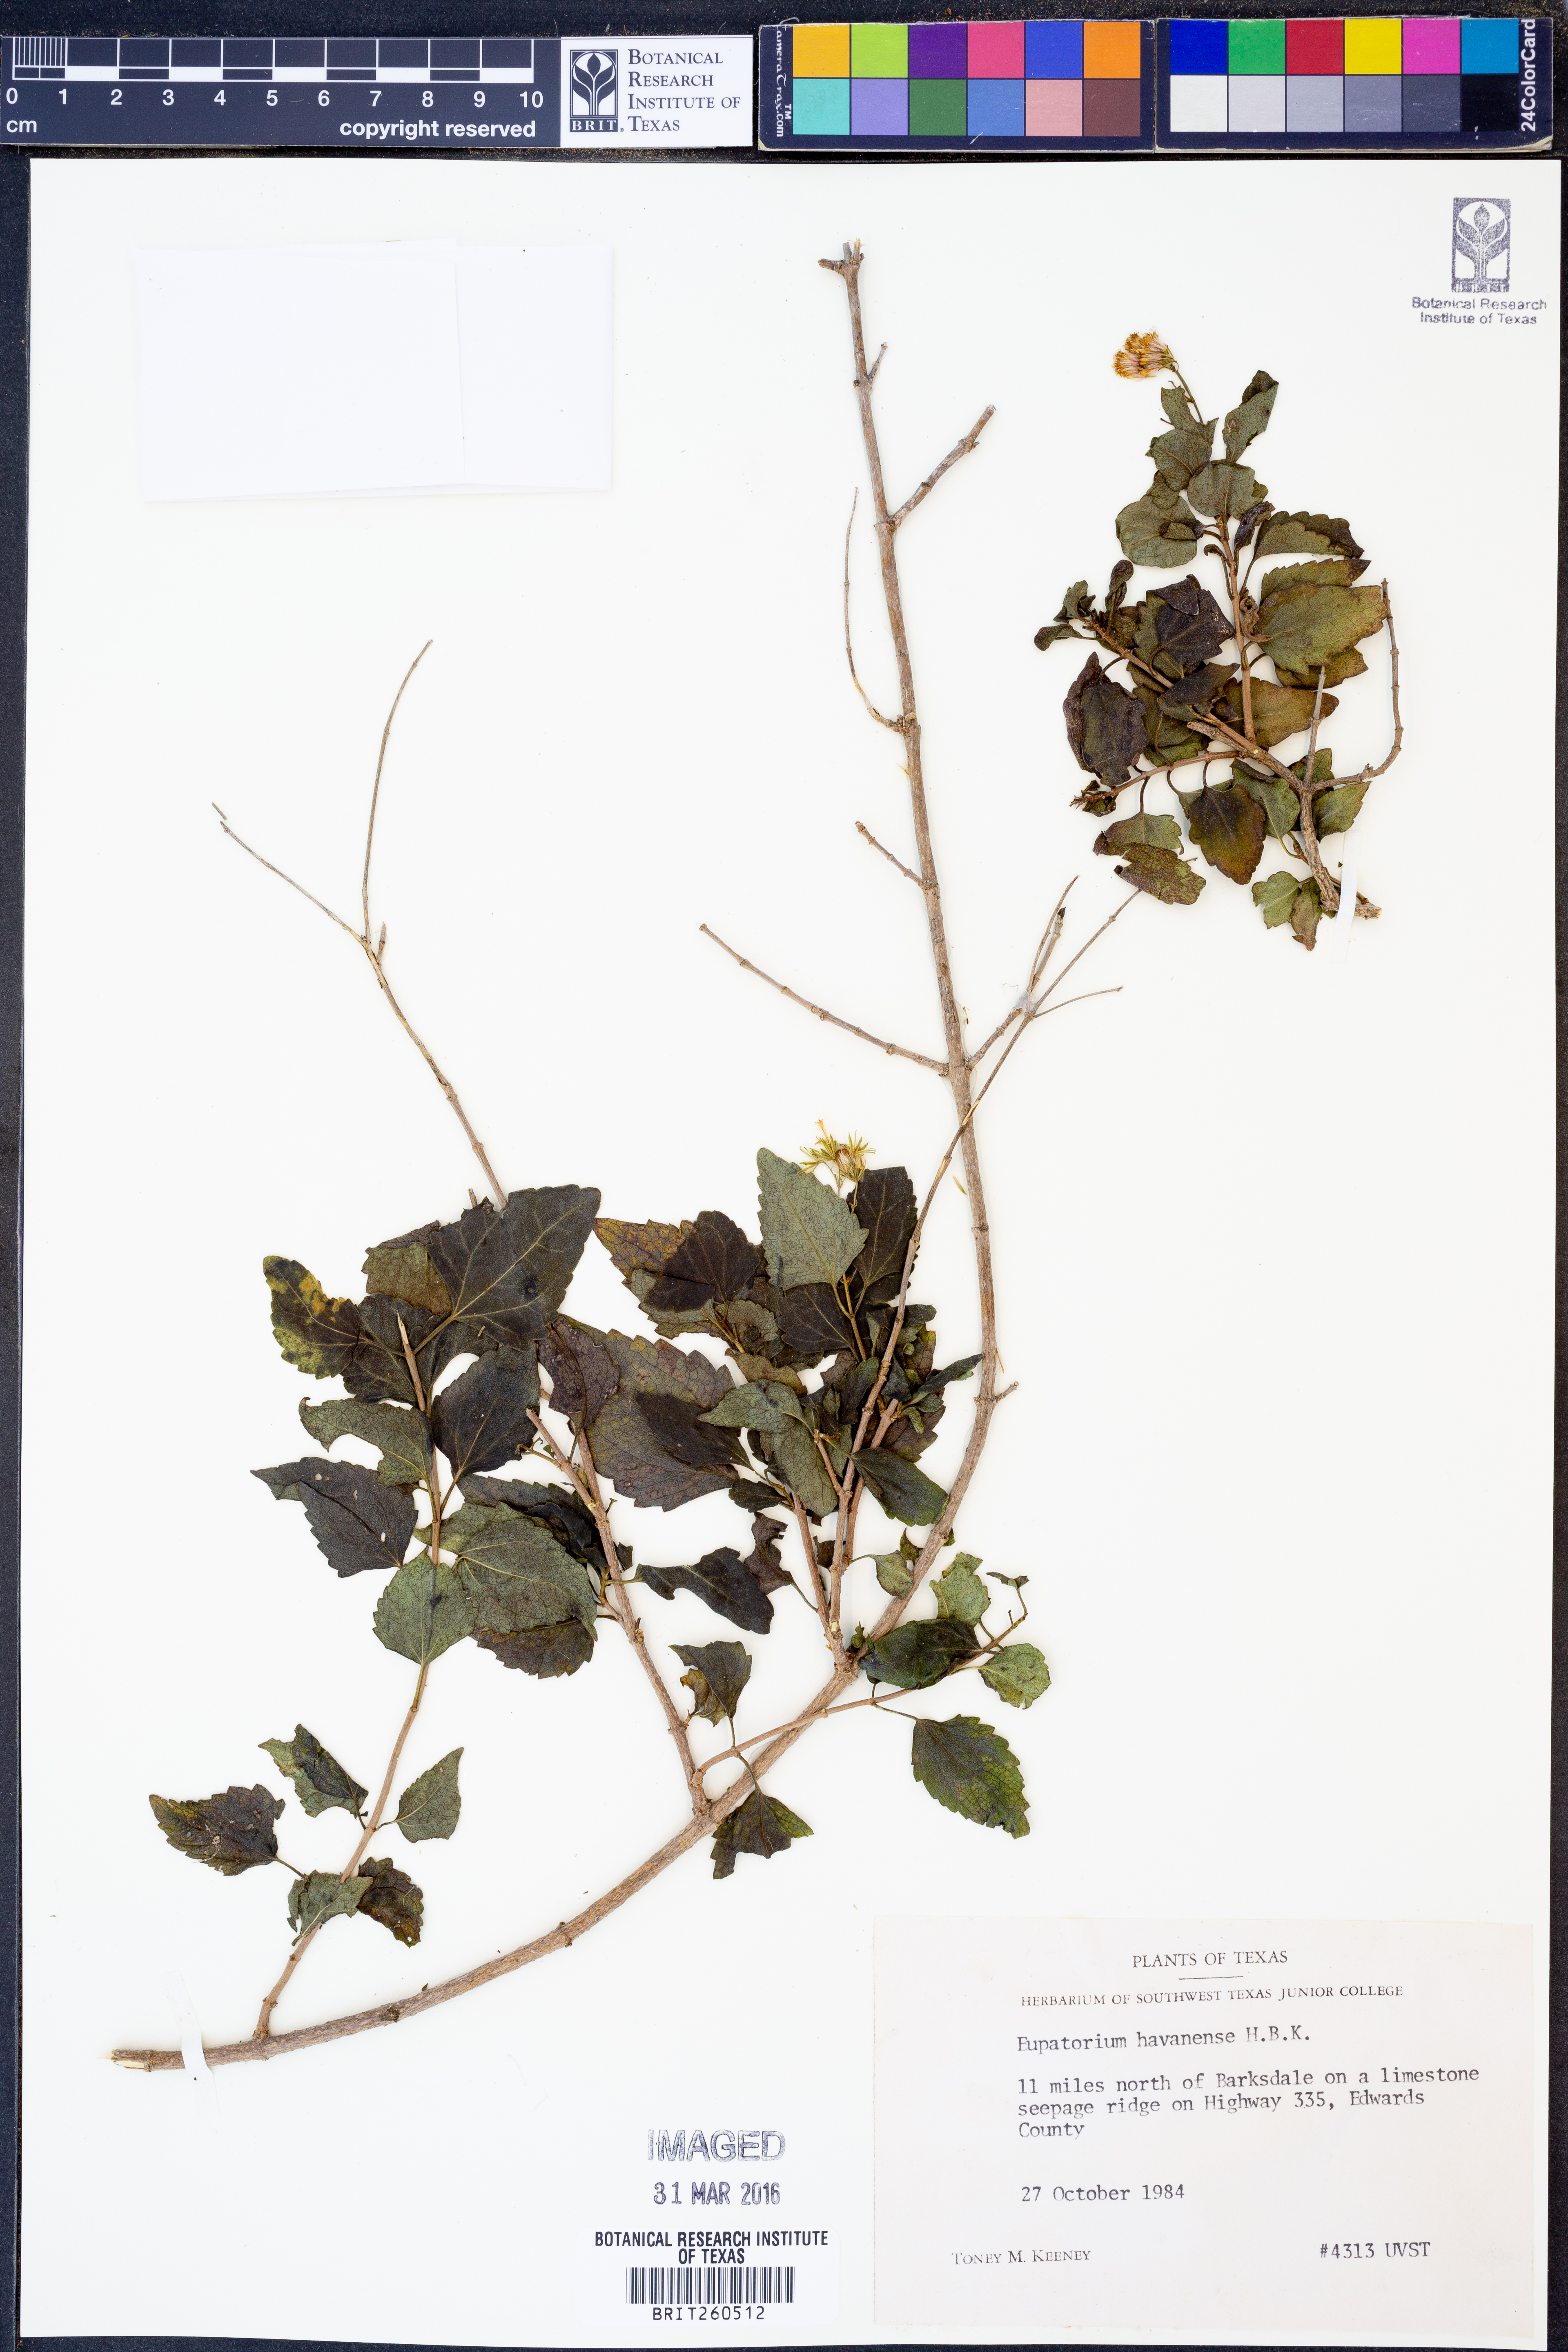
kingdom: Plantae
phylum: Tracheophyta
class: Magnoliopsida
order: Asterales
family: Asteraceae
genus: Ageratina
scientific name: Ageratina havanensis
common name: Havana snakeroot
